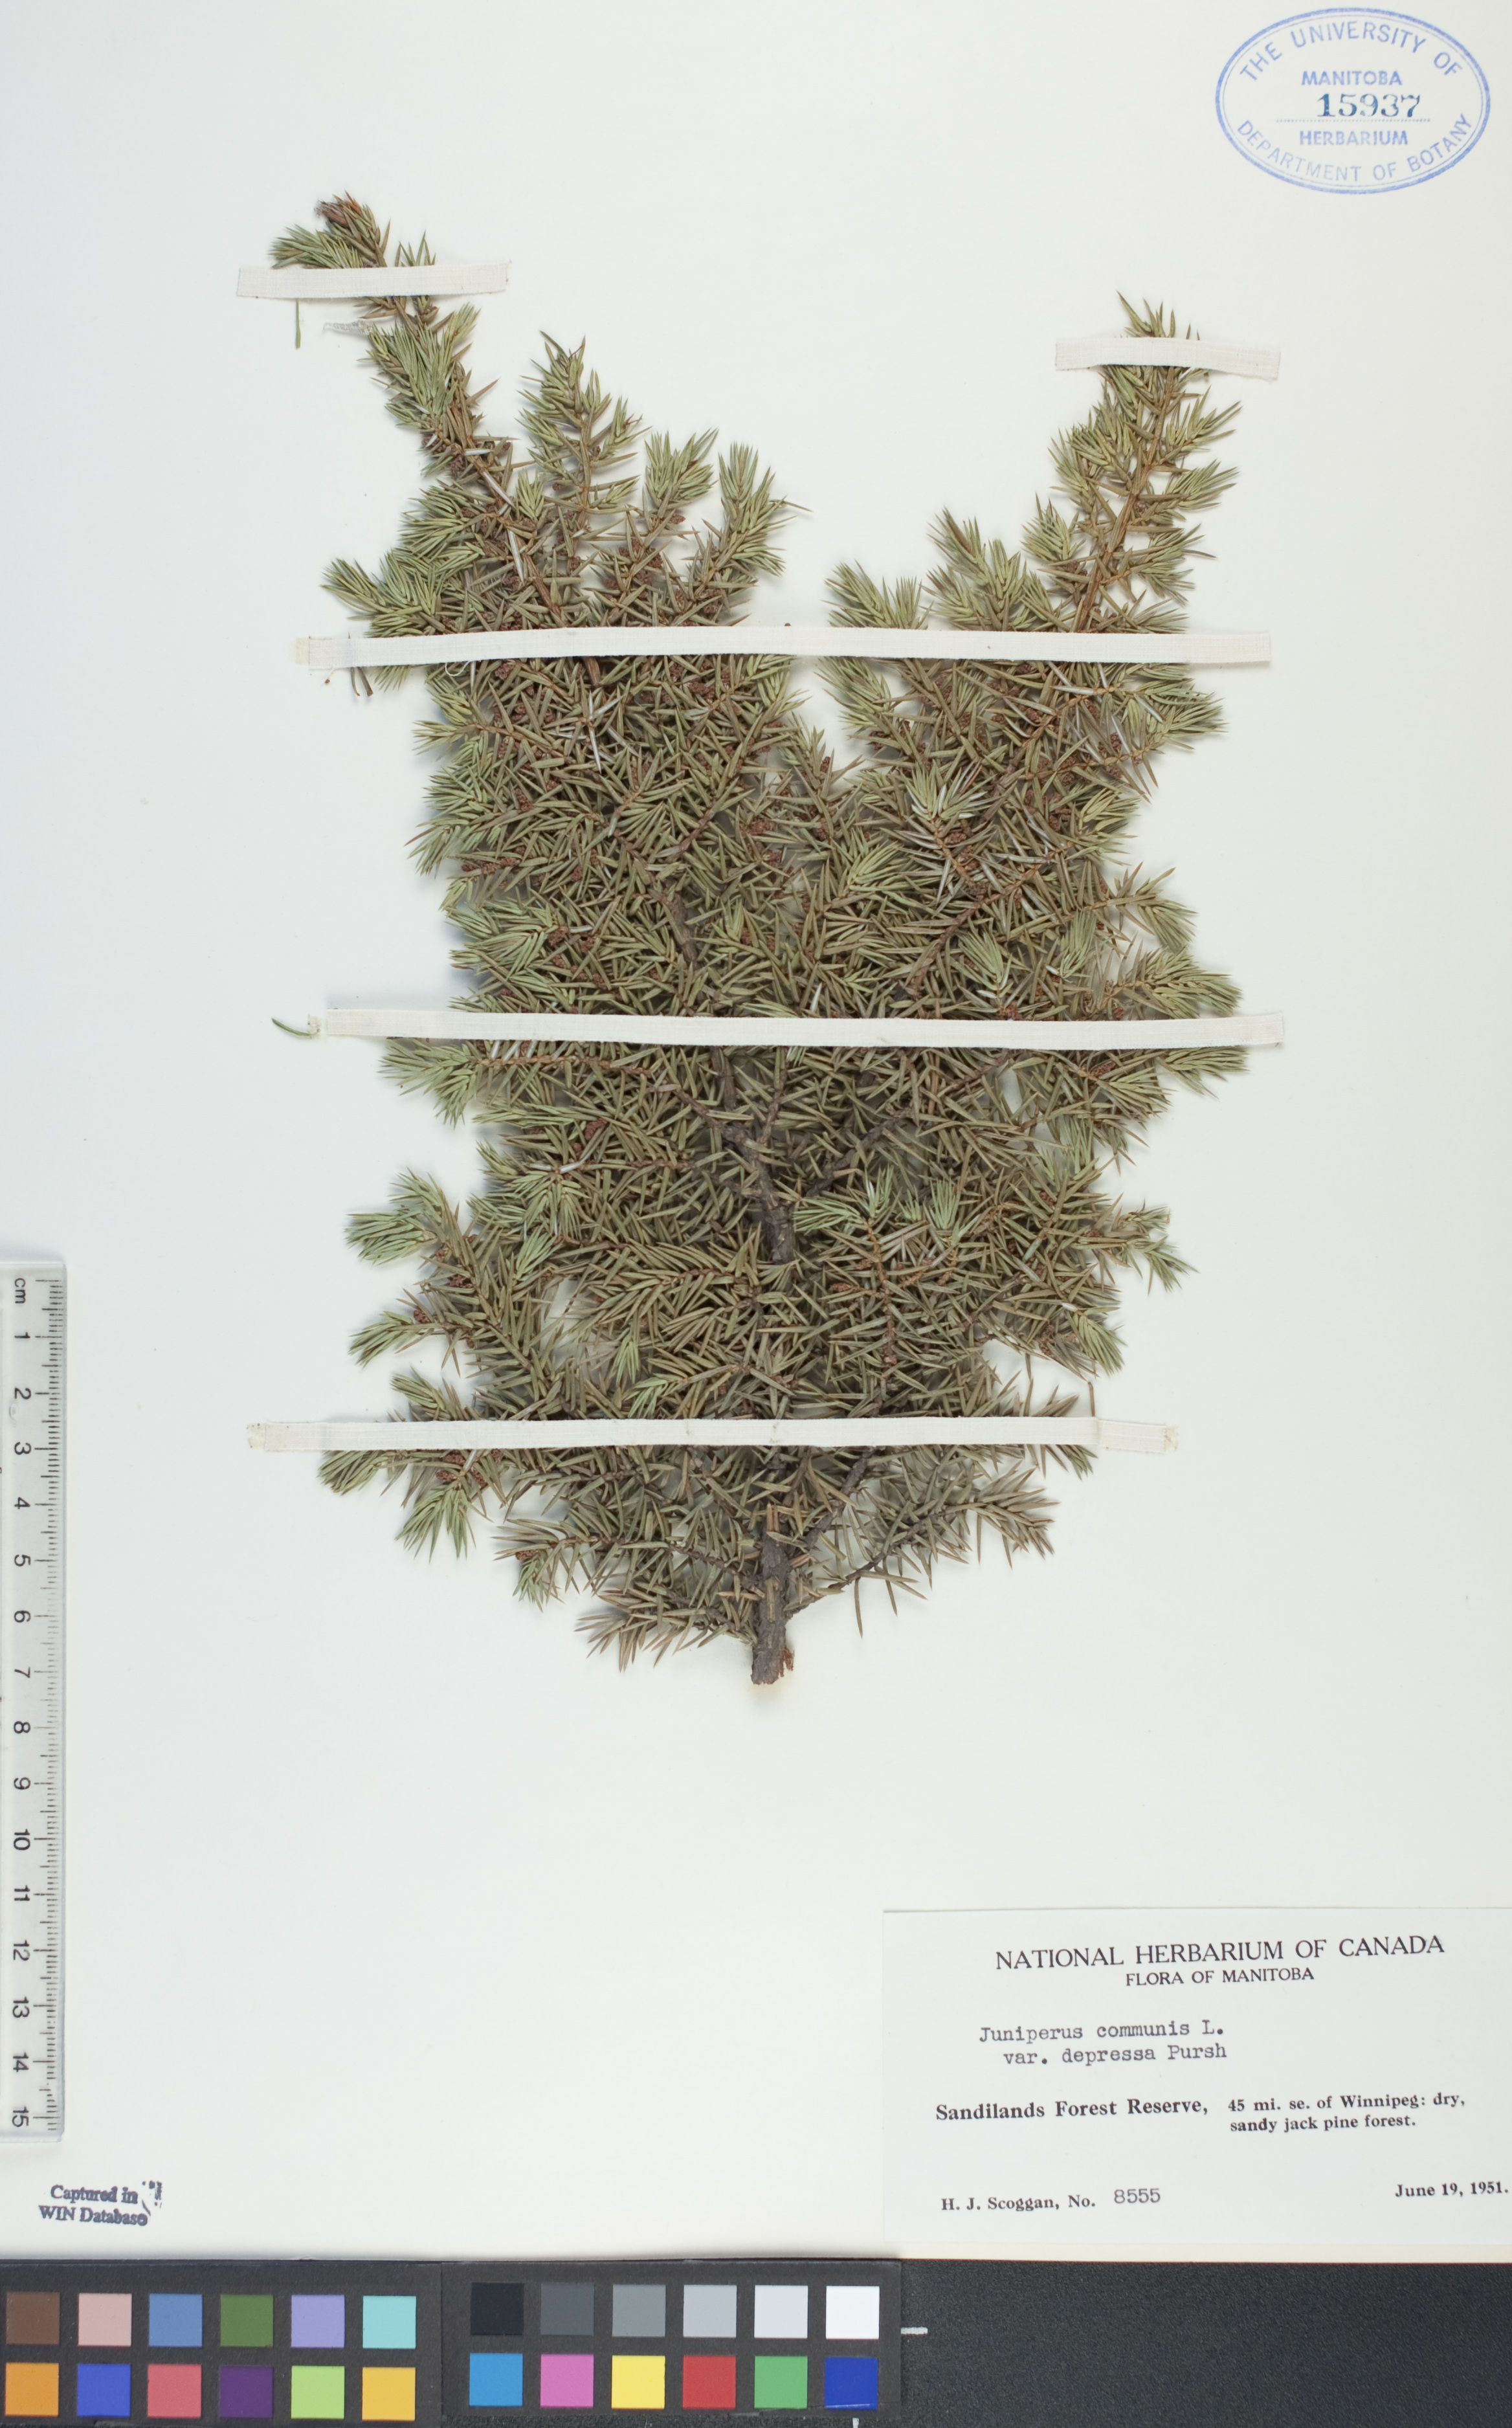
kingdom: Plantae
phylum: Tracheophyta
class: Pinopsida
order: Pinales
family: Cupressaceae
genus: Juniperus
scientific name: Juniperus communis
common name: Common juniper
